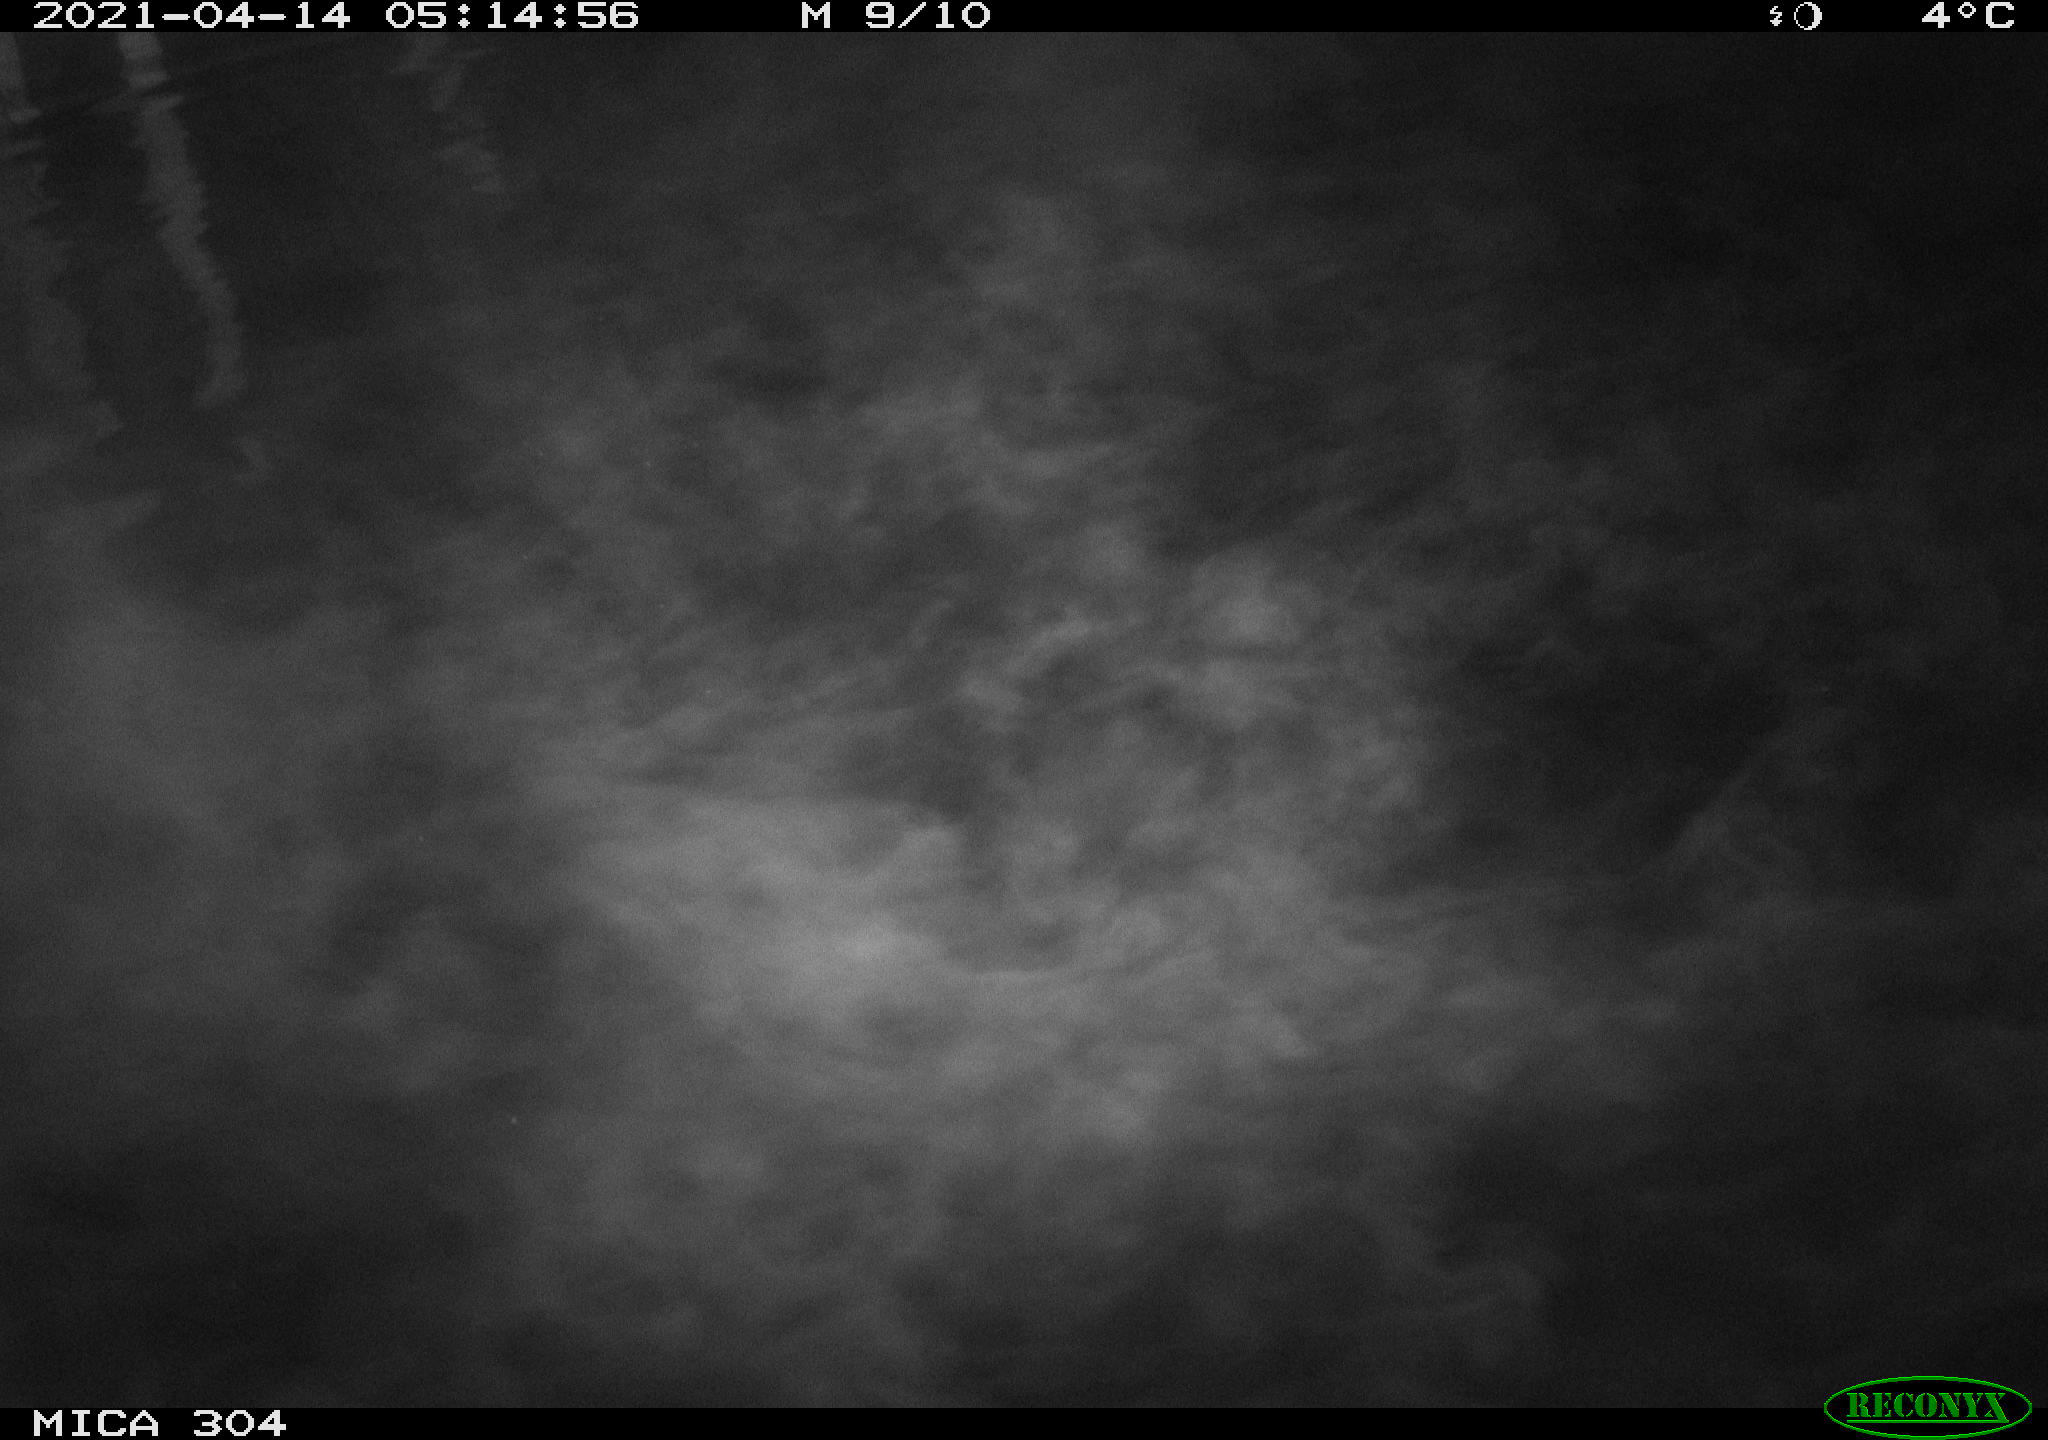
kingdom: Animalia
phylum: Chordata
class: Aves
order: Anseriformes
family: Anatidae
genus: Anas
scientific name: Anas platyrhynchos
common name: Mallard
